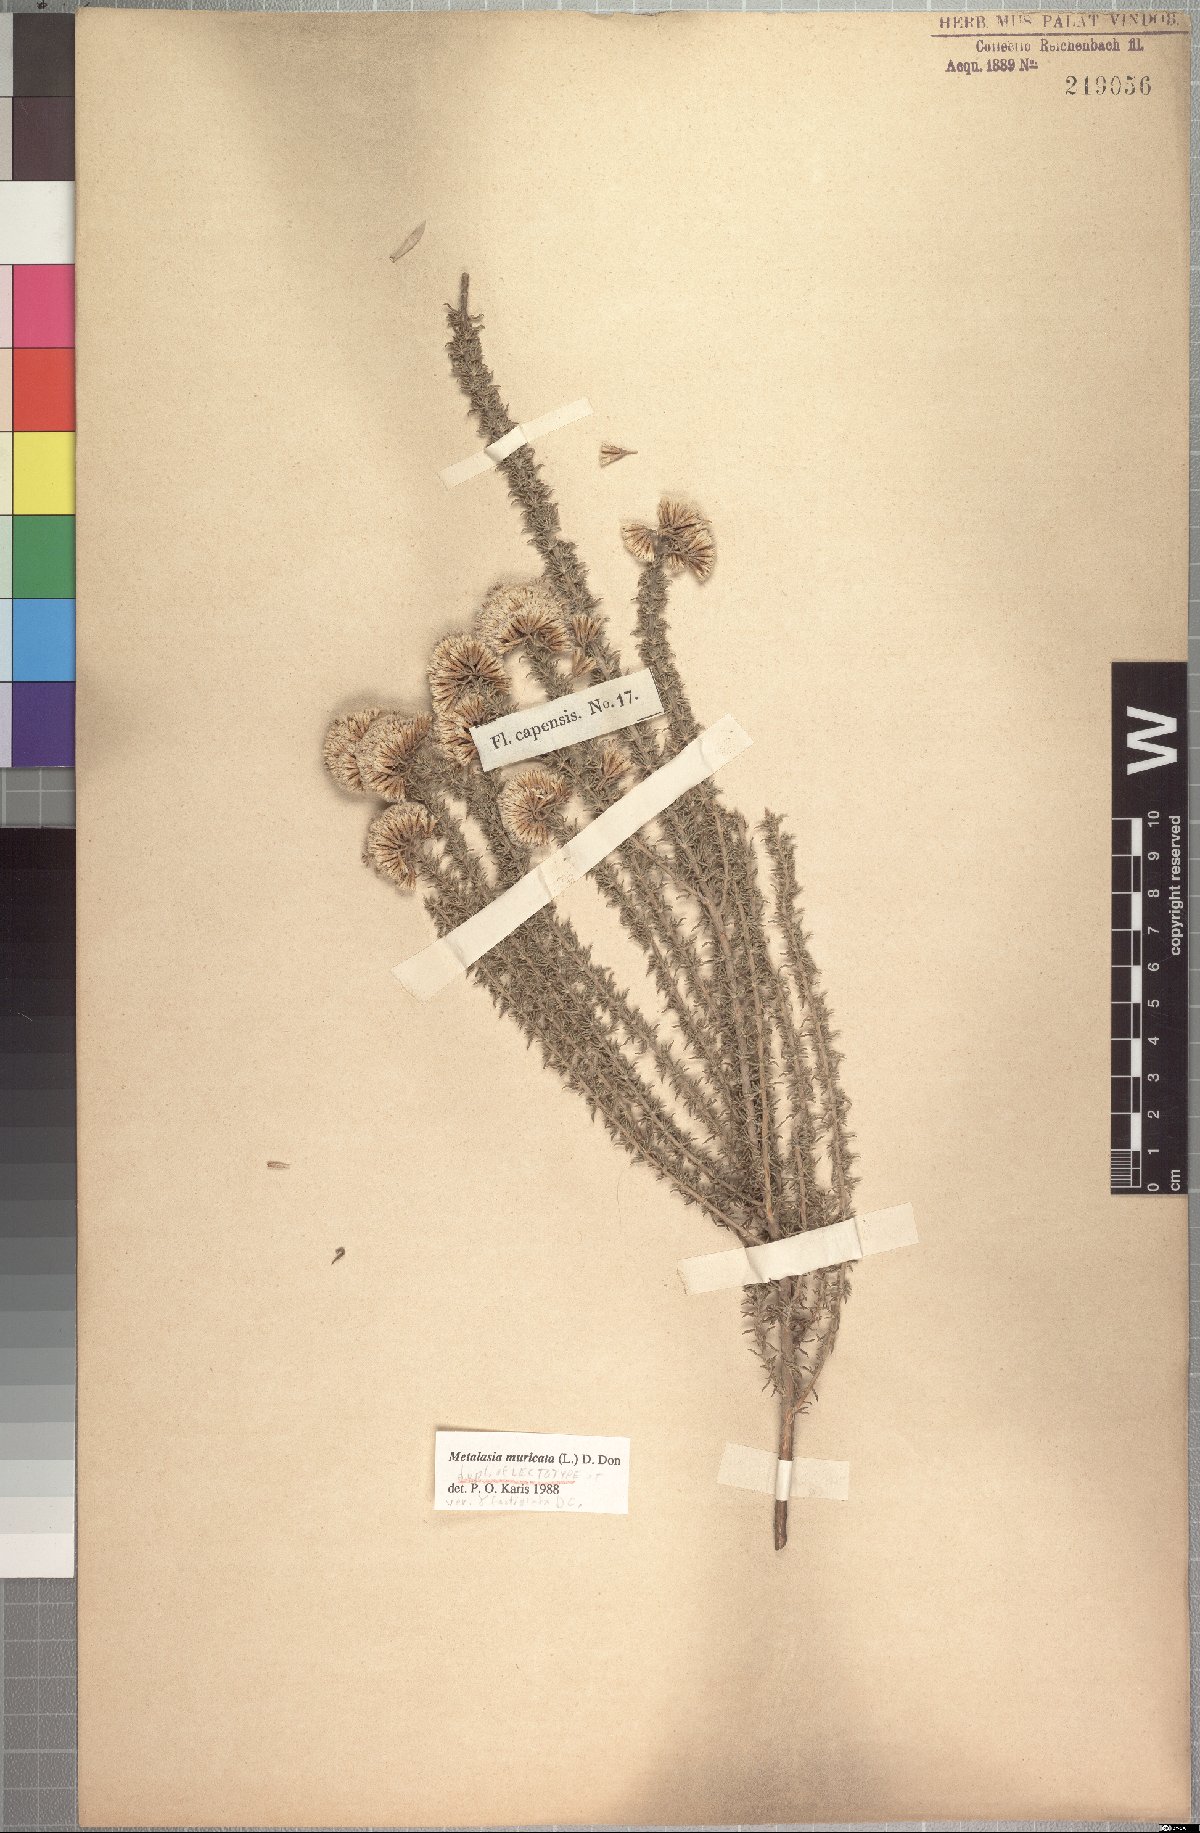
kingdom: Plantae
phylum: Tracheophyta
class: Magnoliopsida
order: Asterales
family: Asteraceae
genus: Metalasia
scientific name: Metalasia muricata
